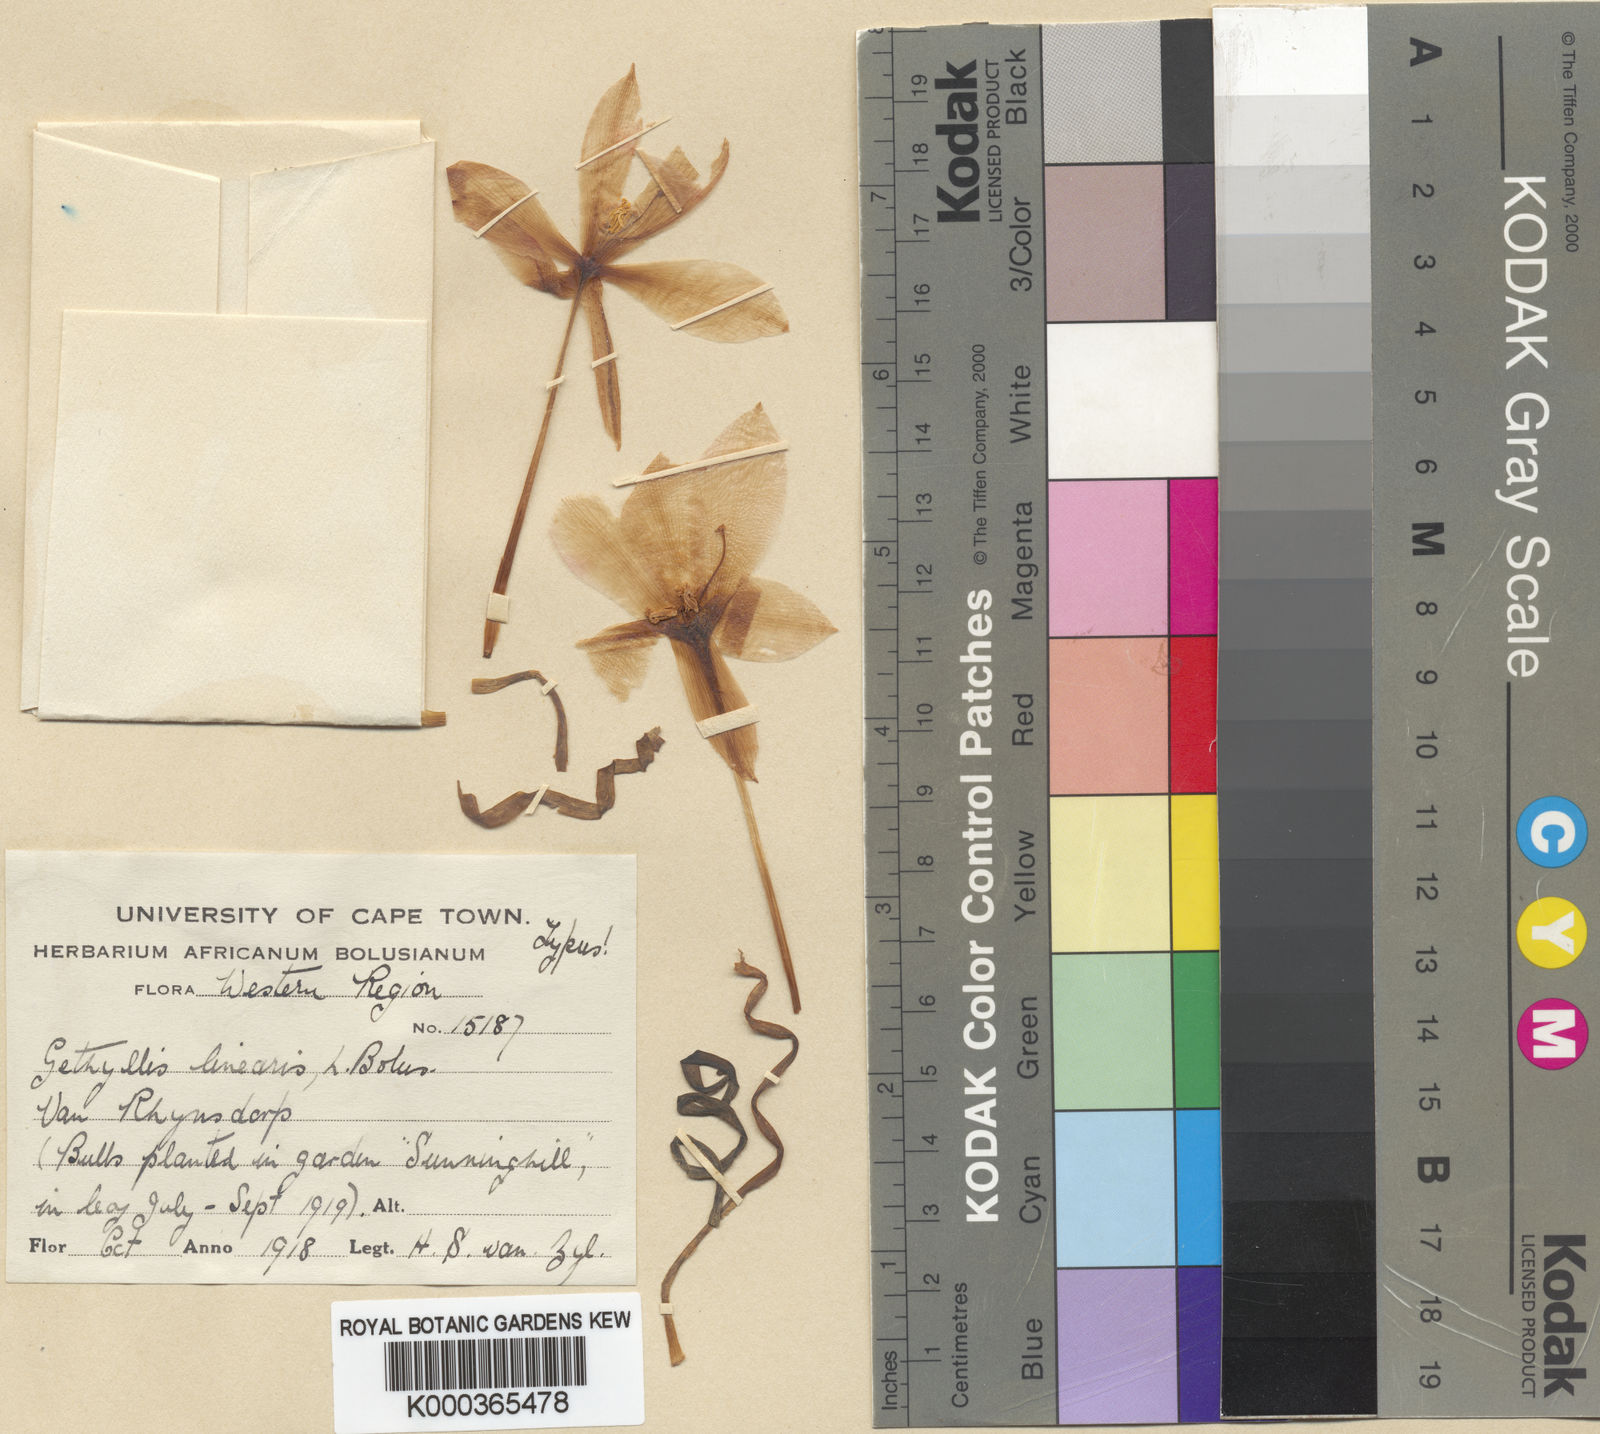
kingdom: Plantae
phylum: Tracheophyta
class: Liliopsida
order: Asparagales
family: Amaryllidaceae
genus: Gethyllis
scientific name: Gethyllis linearis
